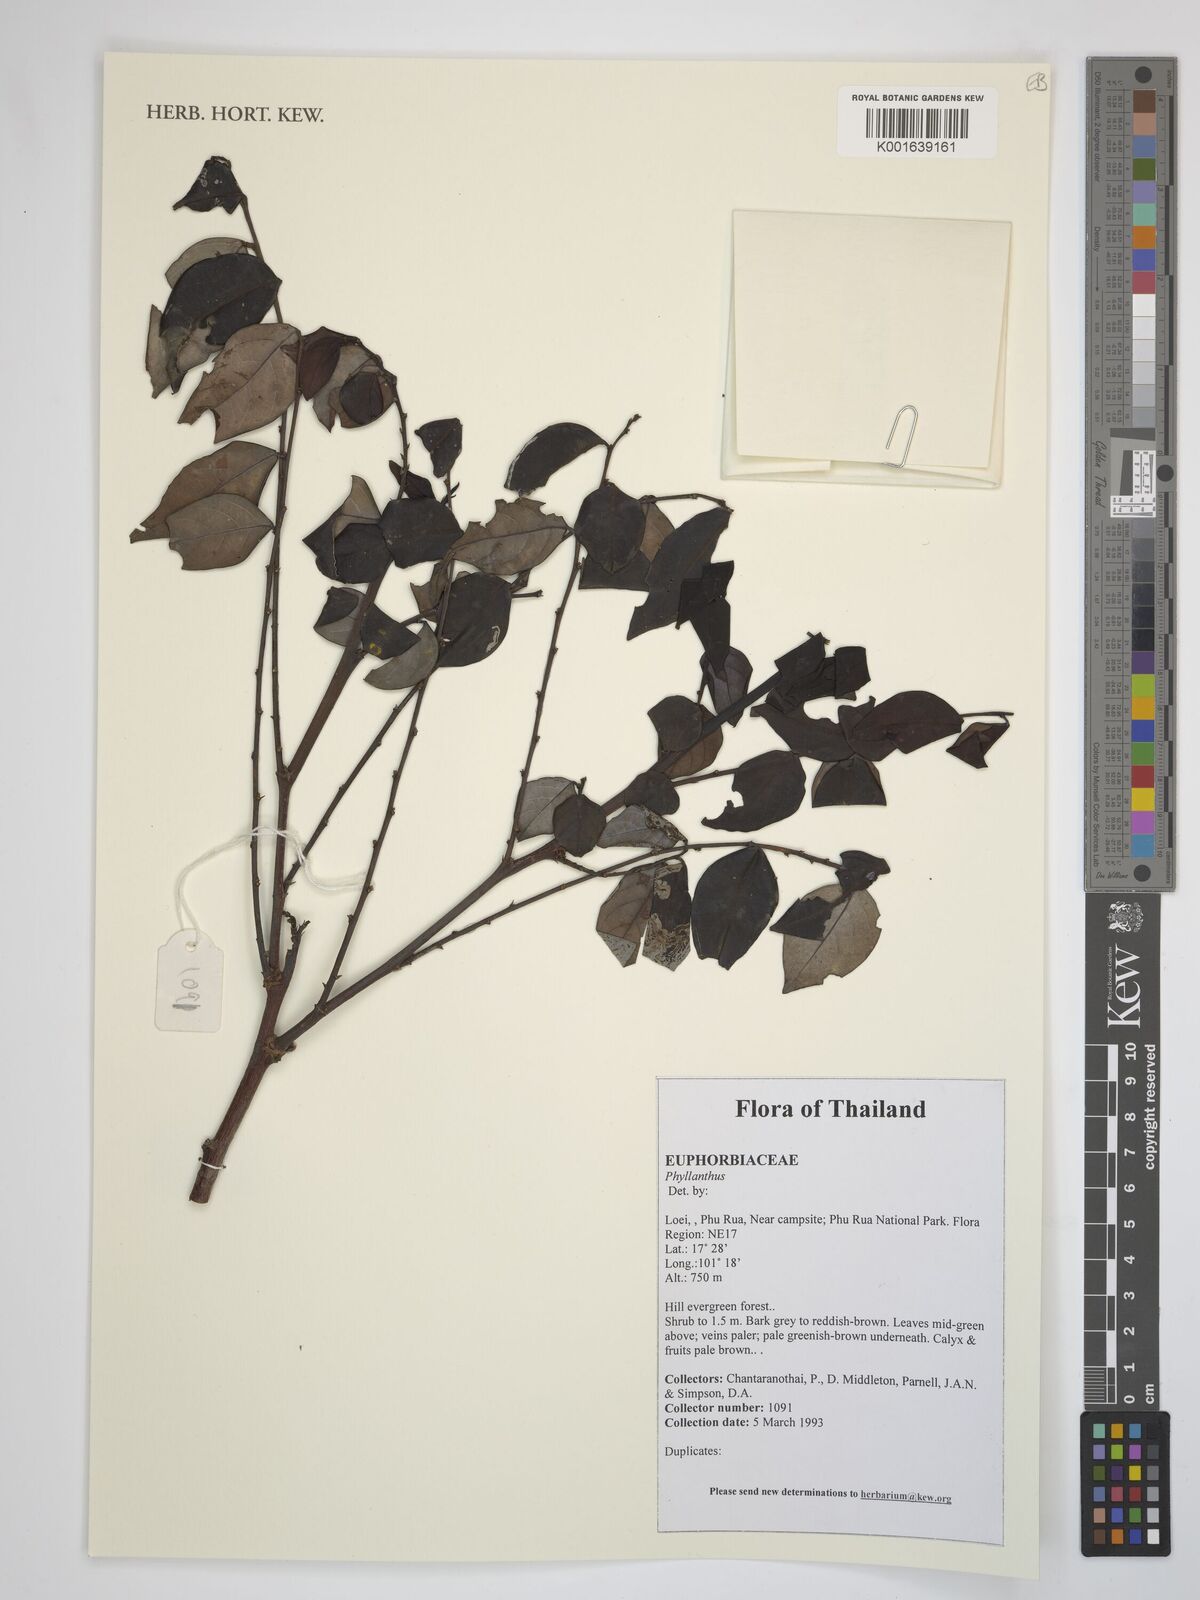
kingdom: Plantae
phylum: Tracheophyta
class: Magnoliopsida
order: Malpighiales
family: Phyllanthaceae
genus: Phyllanthus
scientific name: Phyllanthus
